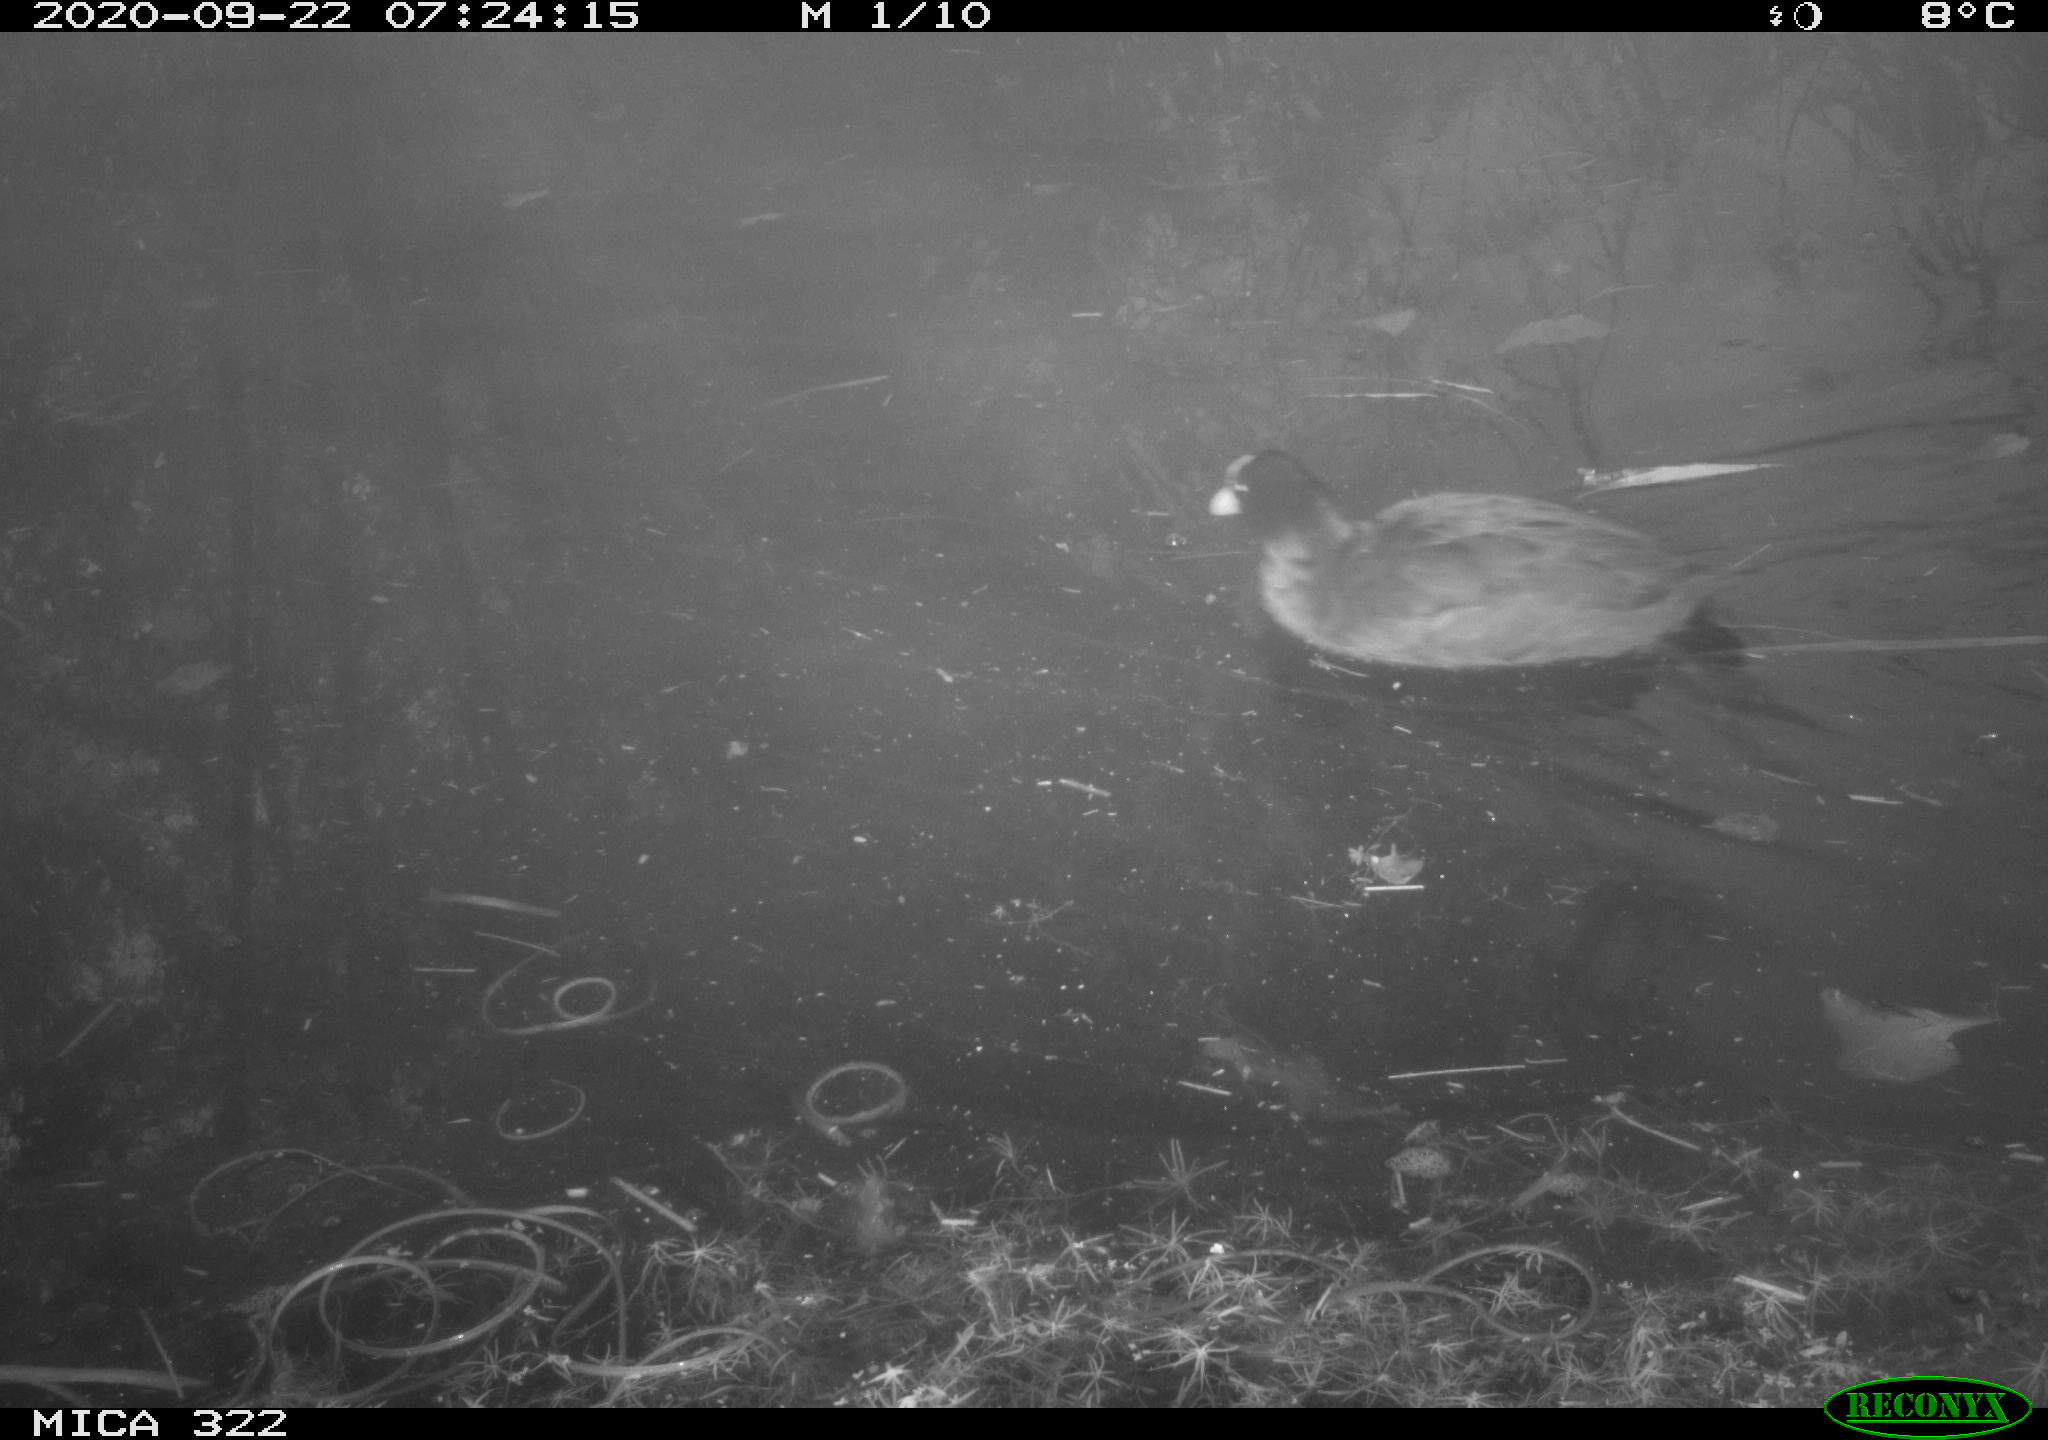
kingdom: Animalia
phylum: Chordata
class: Aves
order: Gruiformes
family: Rallidae
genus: Fulica
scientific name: Fulica atra
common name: Eurasian coot
